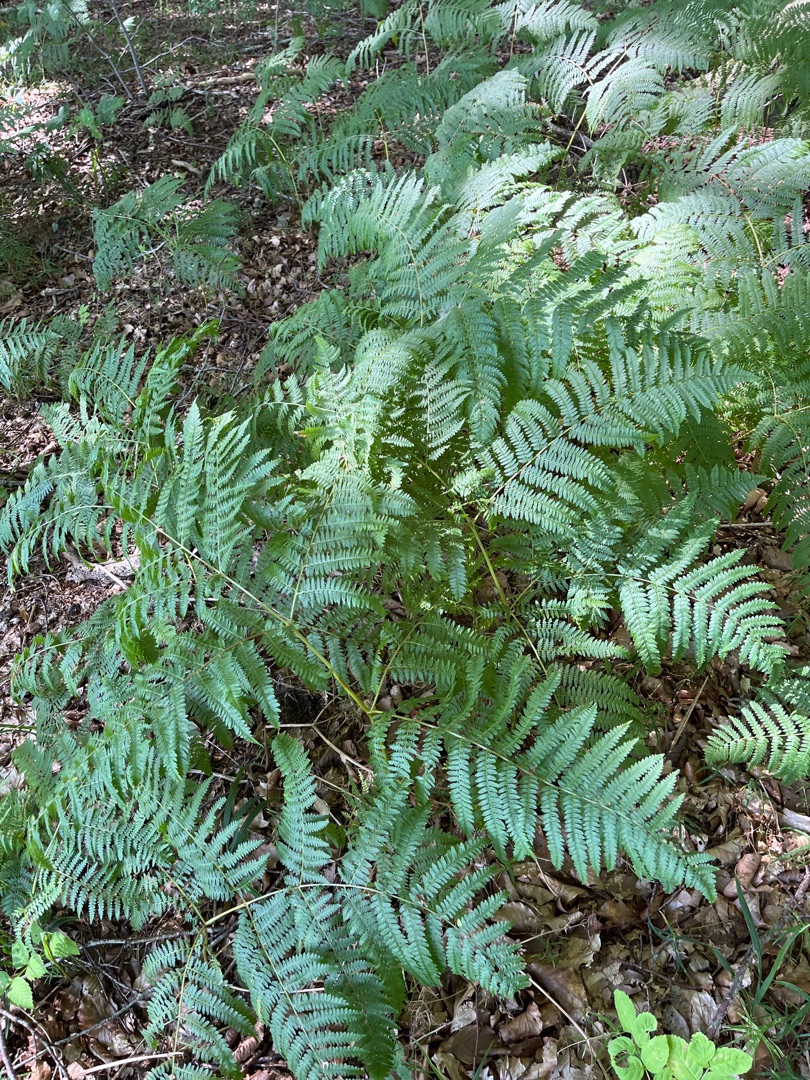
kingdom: Plantae
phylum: Tracheophyta
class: Polypodiopsida
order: Polypodiales
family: Dennstaedtiaceae
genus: Pteridium
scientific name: Pteridium aquilinum
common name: Ørnebregne
